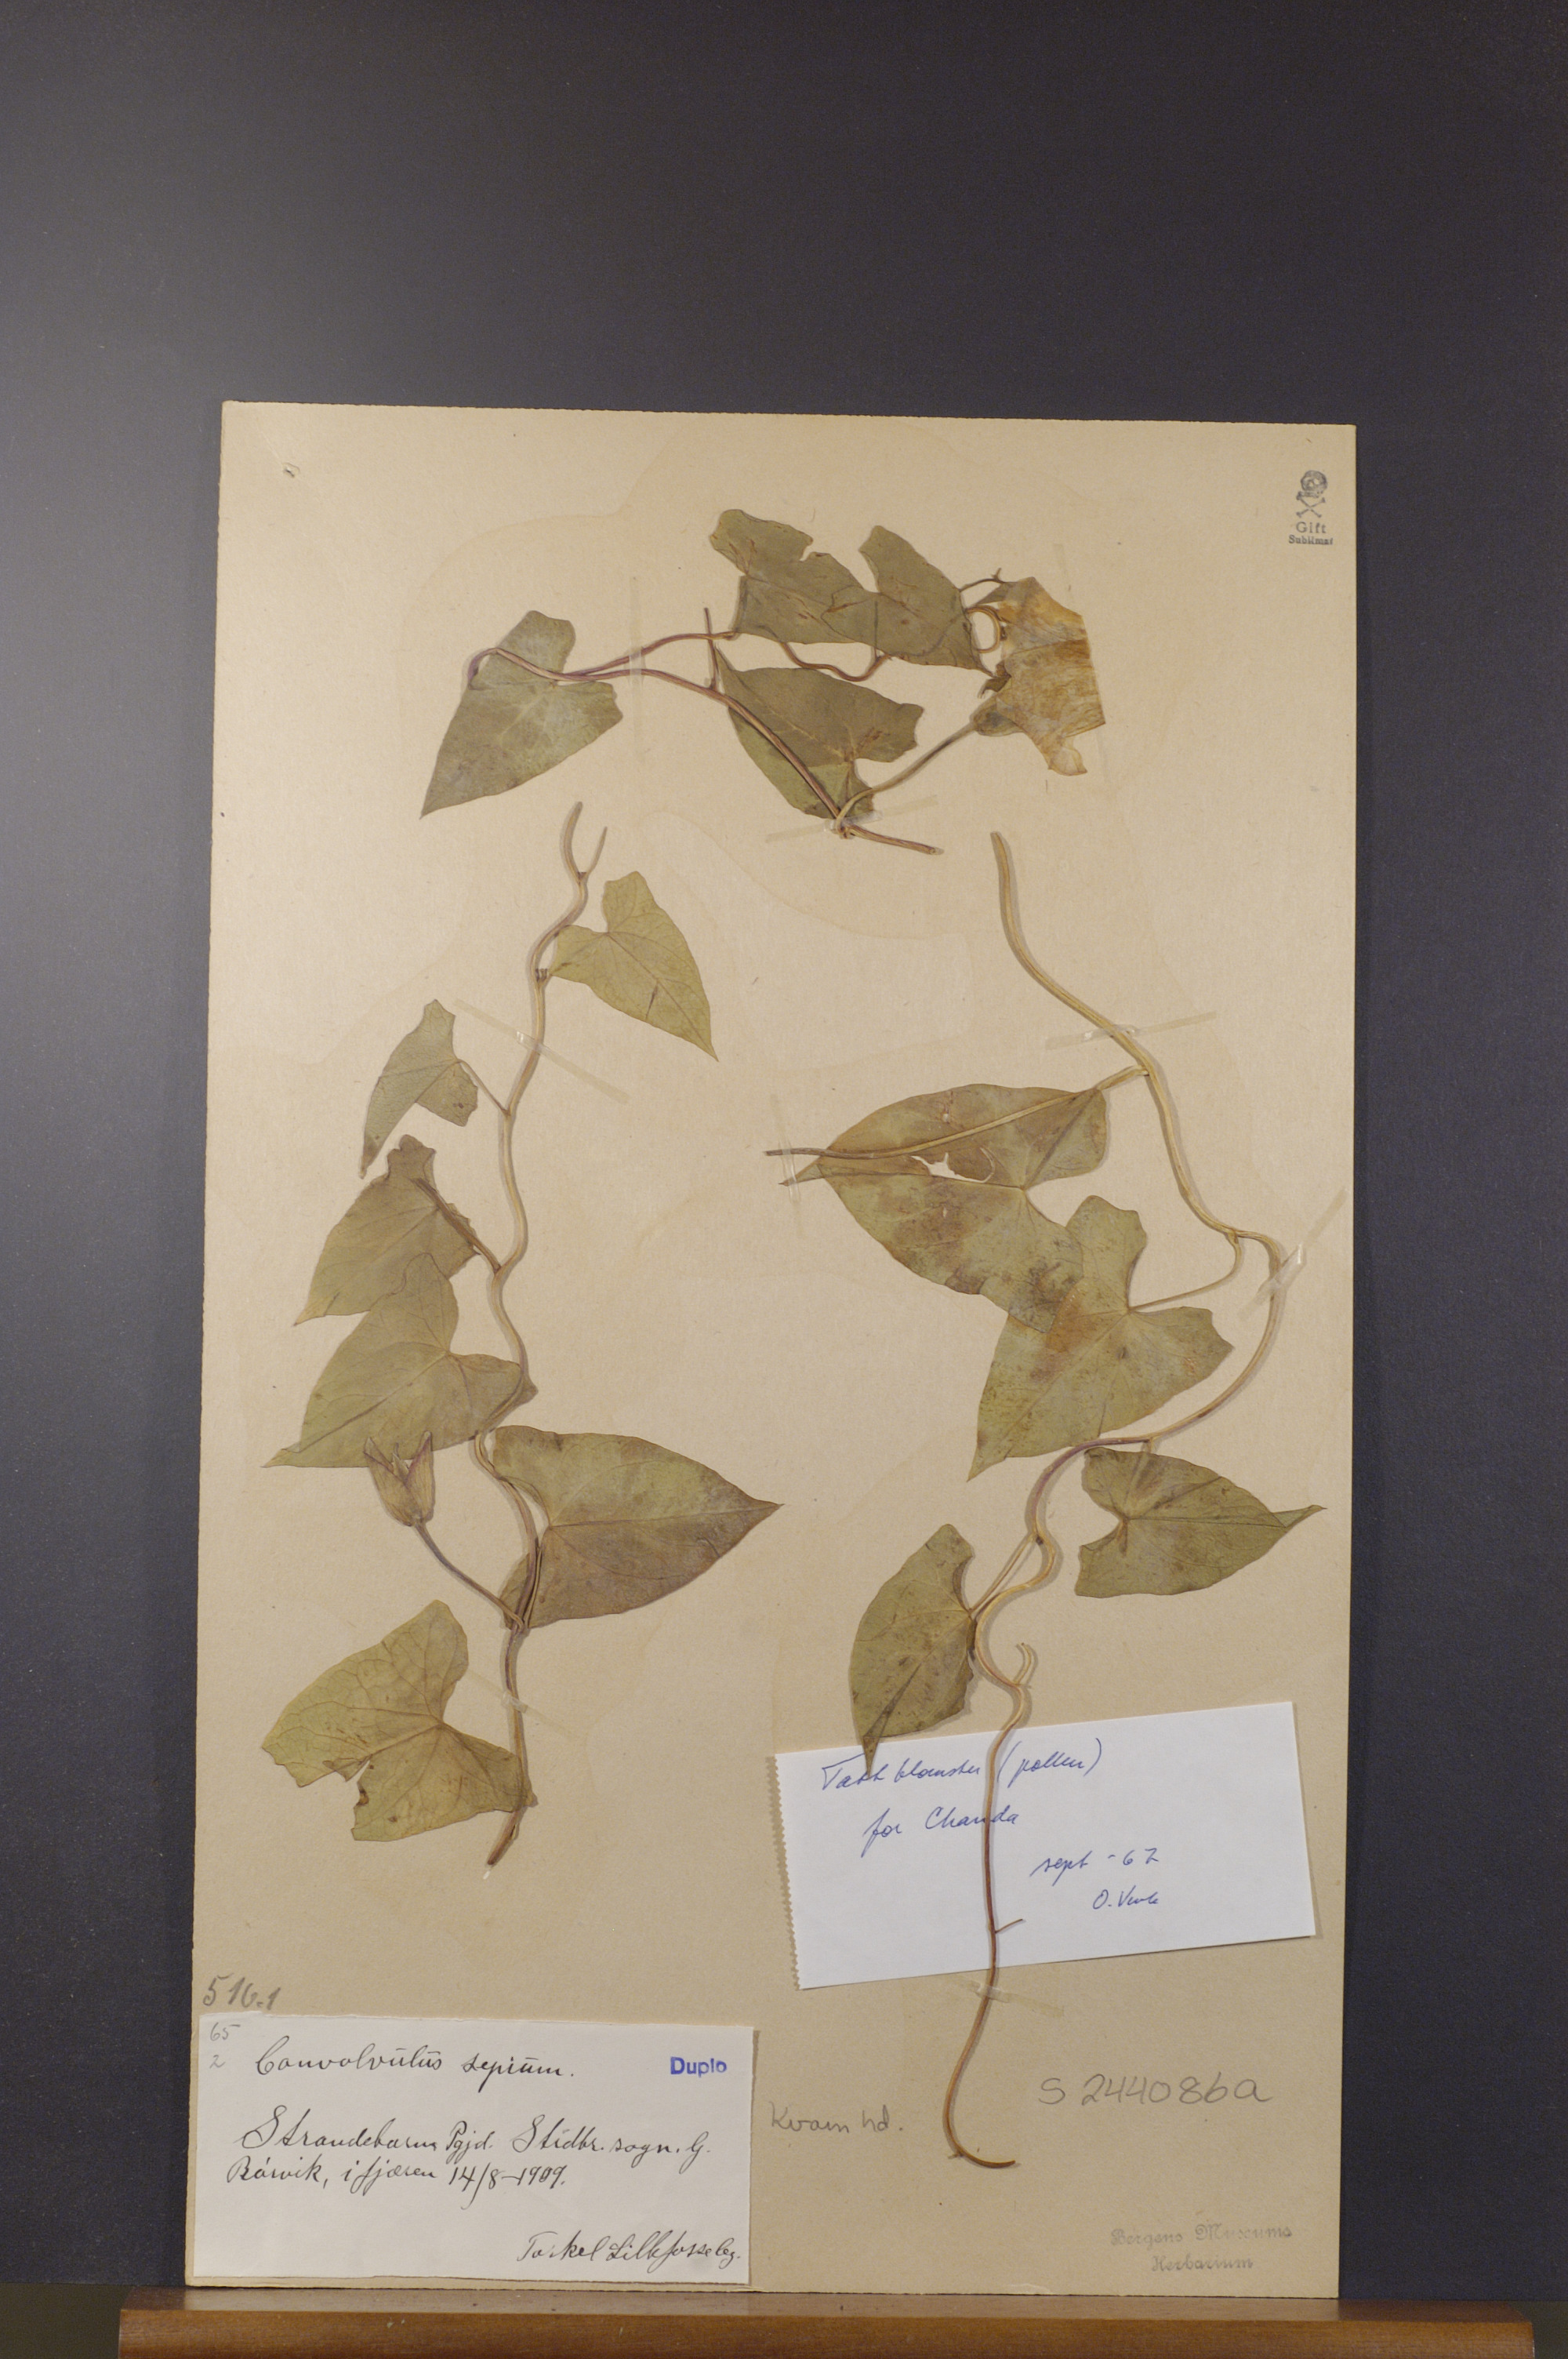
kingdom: Plantae
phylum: Tracheophyta
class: Magnoliopsida
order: Solanales
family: Convolvulaceae
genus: Calystegia
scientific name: Calystegia sepium
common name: Hedge bindweed
